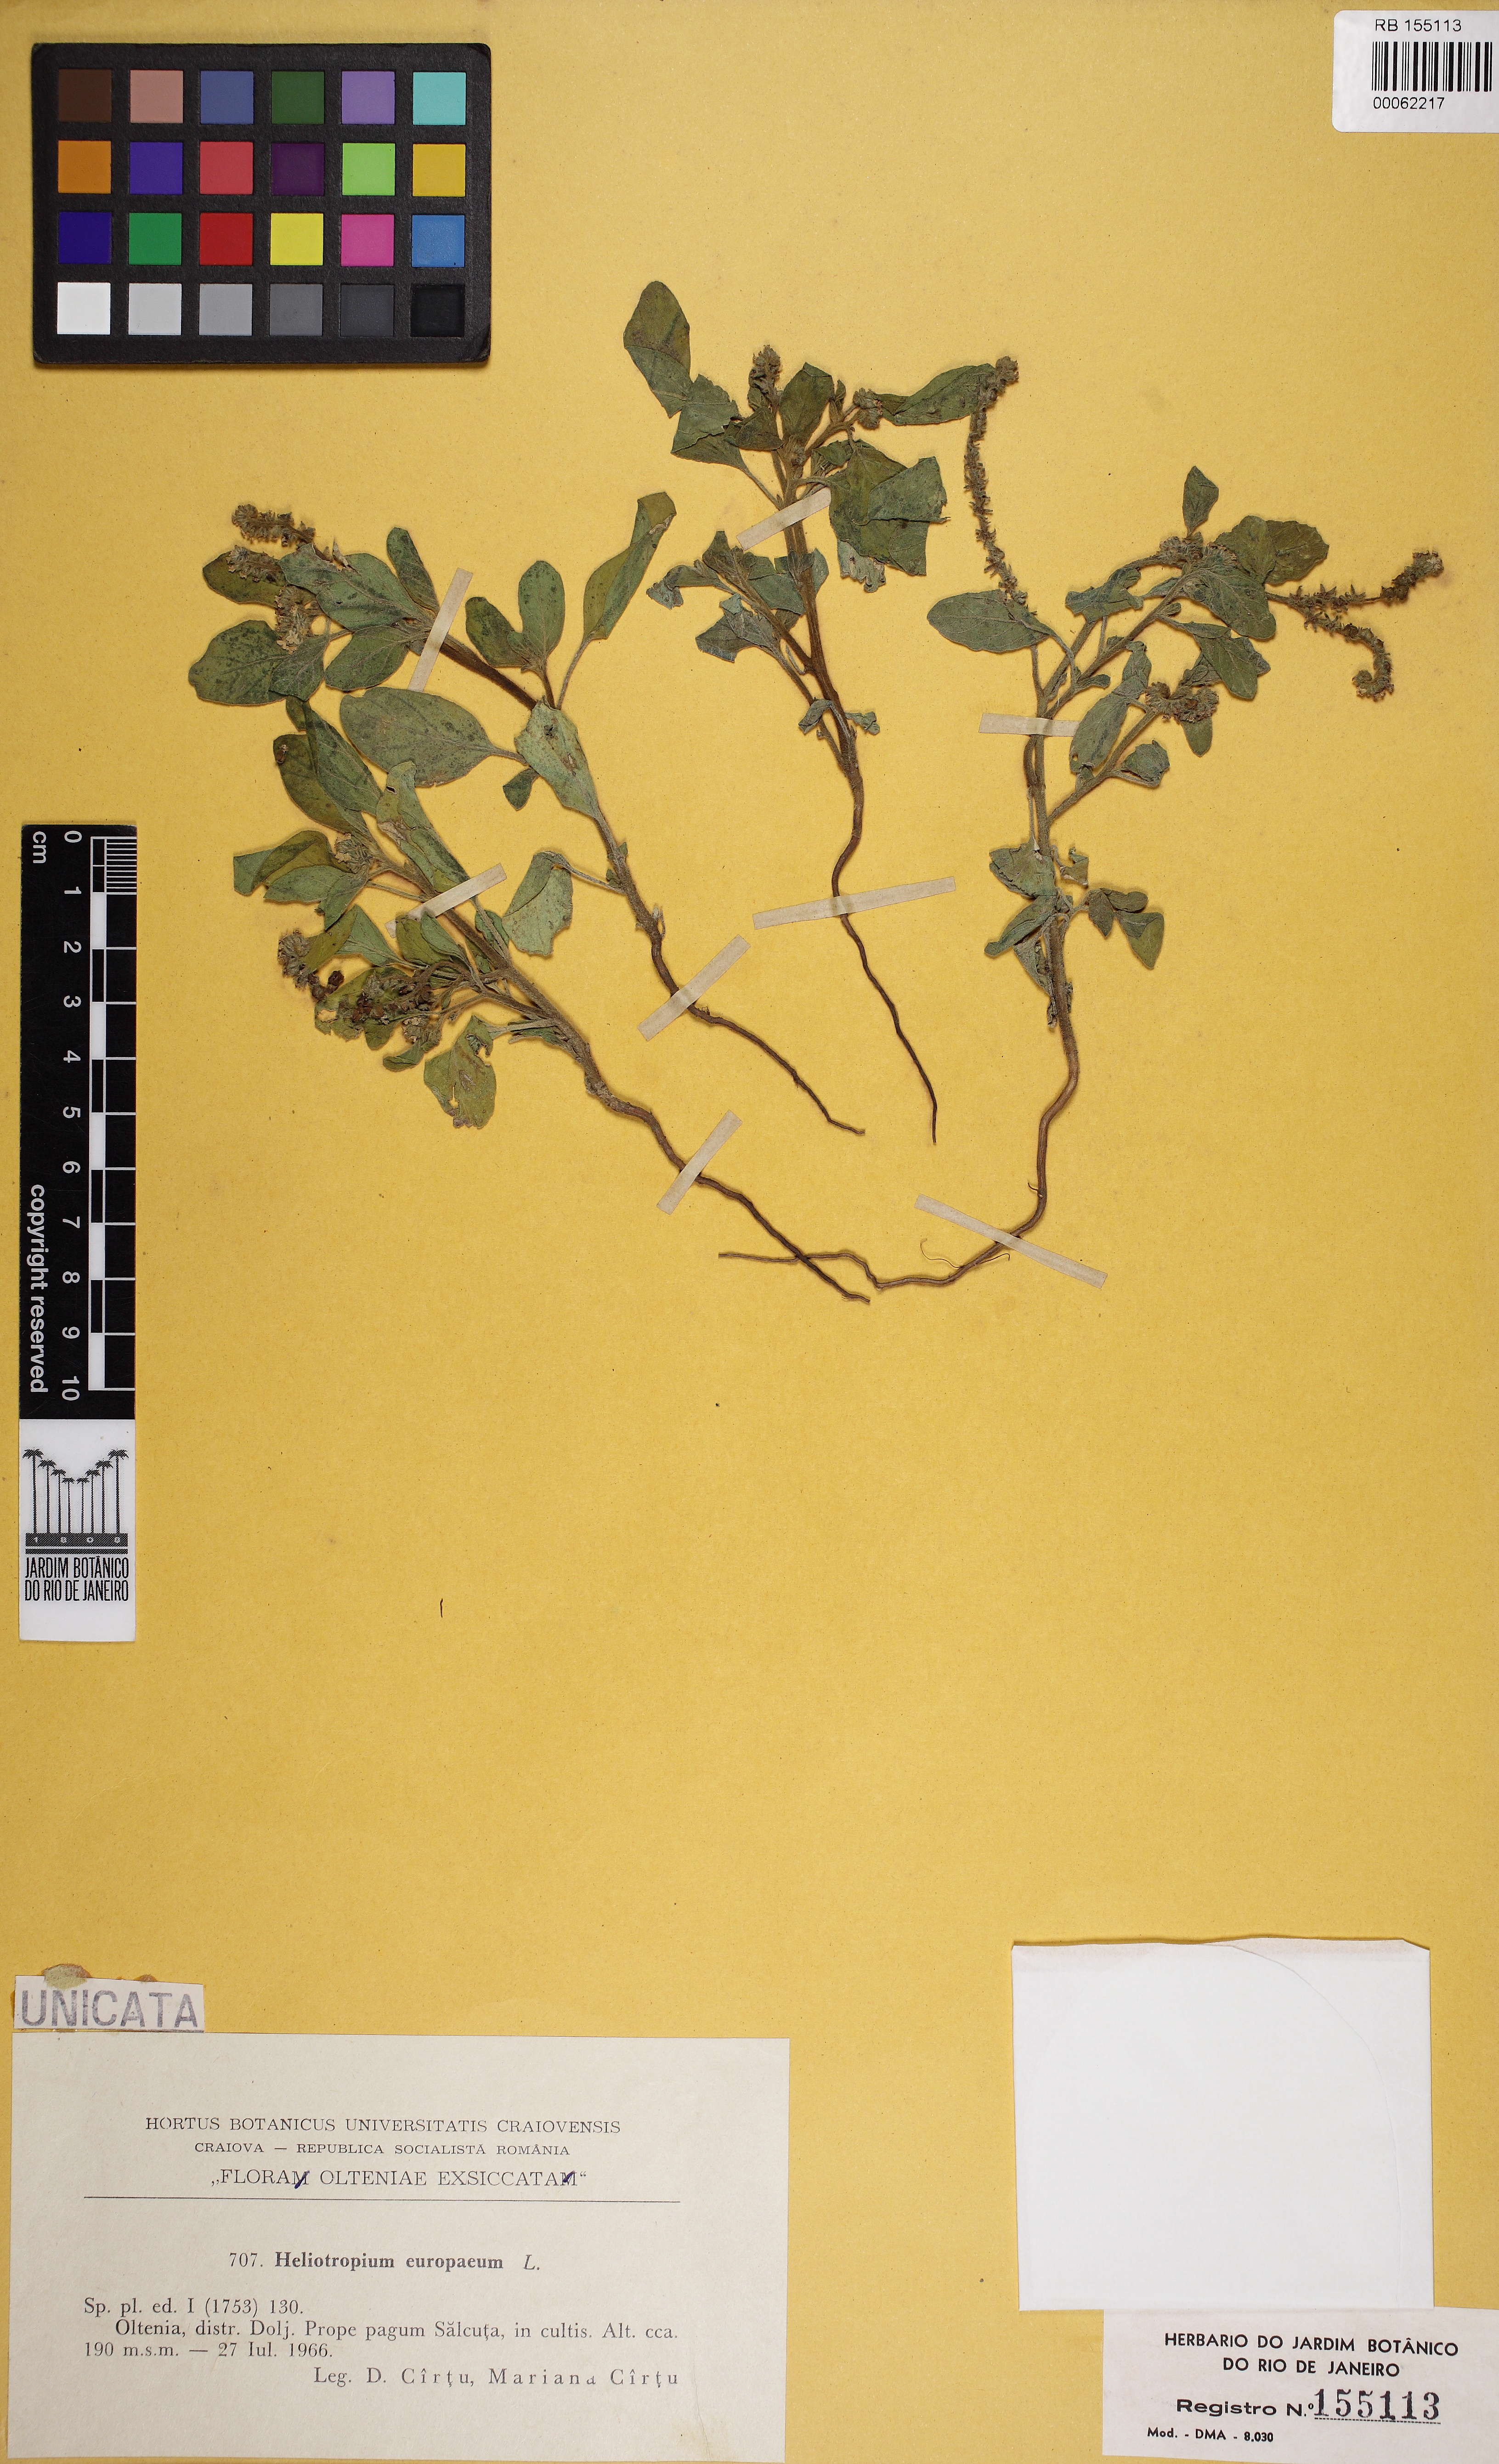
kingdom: Plantae
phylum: Tracheophyta
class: Magnoliopsida
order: Boraginales
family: Heliotropiaceae
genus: Heliotropium
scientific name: Heliotropium europaeum
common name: European heliotrope
